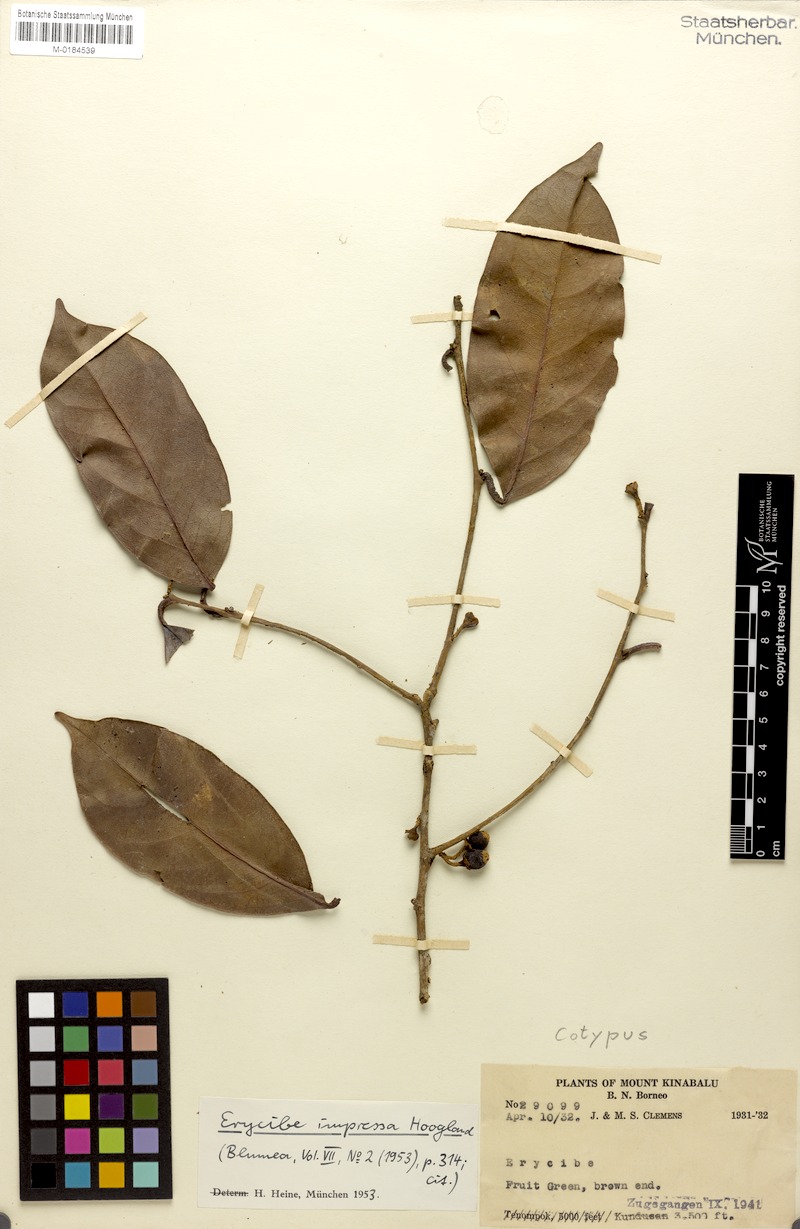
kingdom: Plantae
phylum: Tracheophyta
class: Magnoliopsida
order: Solanales
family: Convolvulaceae
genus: Erycibe
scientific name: Erycibe impressa
